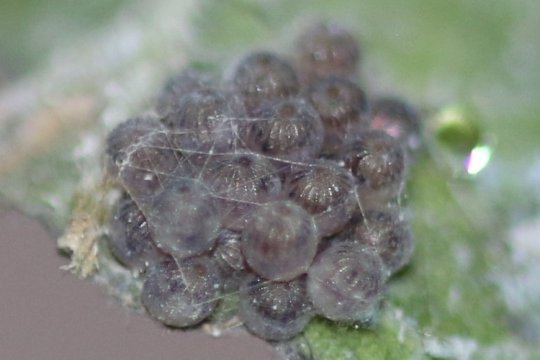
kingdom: Animalia
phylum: Arthropoda
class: Insecta
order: Lepidoptera
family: Nymphalidae
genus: Asterocampa
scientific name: Asterocampa celtis
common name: Hackberry Emperor
